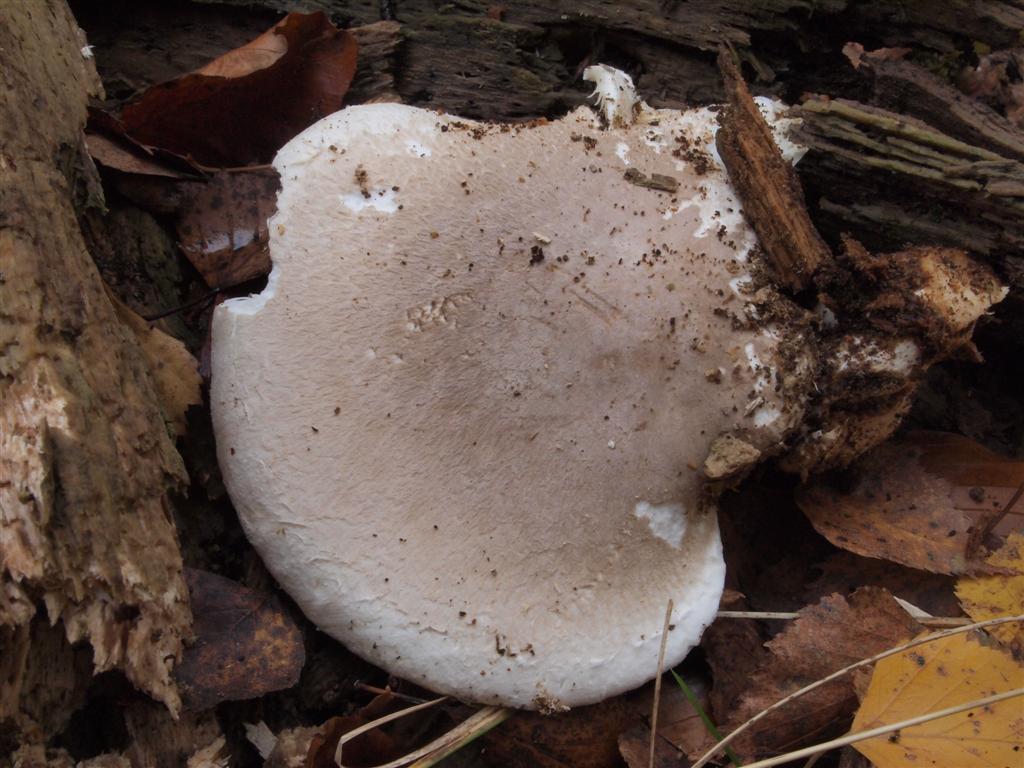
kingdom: Fungi
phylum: Basidiomycota
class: Agaricomycetes
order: Agaricales
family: Pleurotaceae
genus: Pleurotus
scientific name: Pleurotus dryinus
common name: korkagtig østershat
